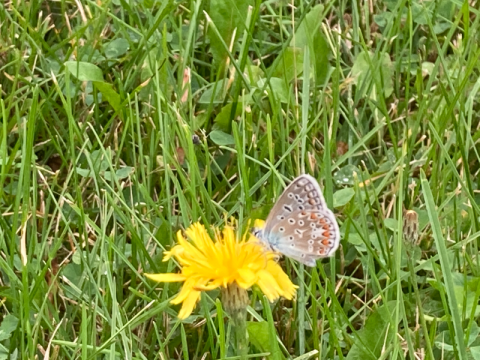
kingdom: Animalia
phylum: Arthropoda
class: Insecta
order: Lepidoptera
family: Lycaenidae
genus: Polyommatus
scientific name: Polyommatus icarus
